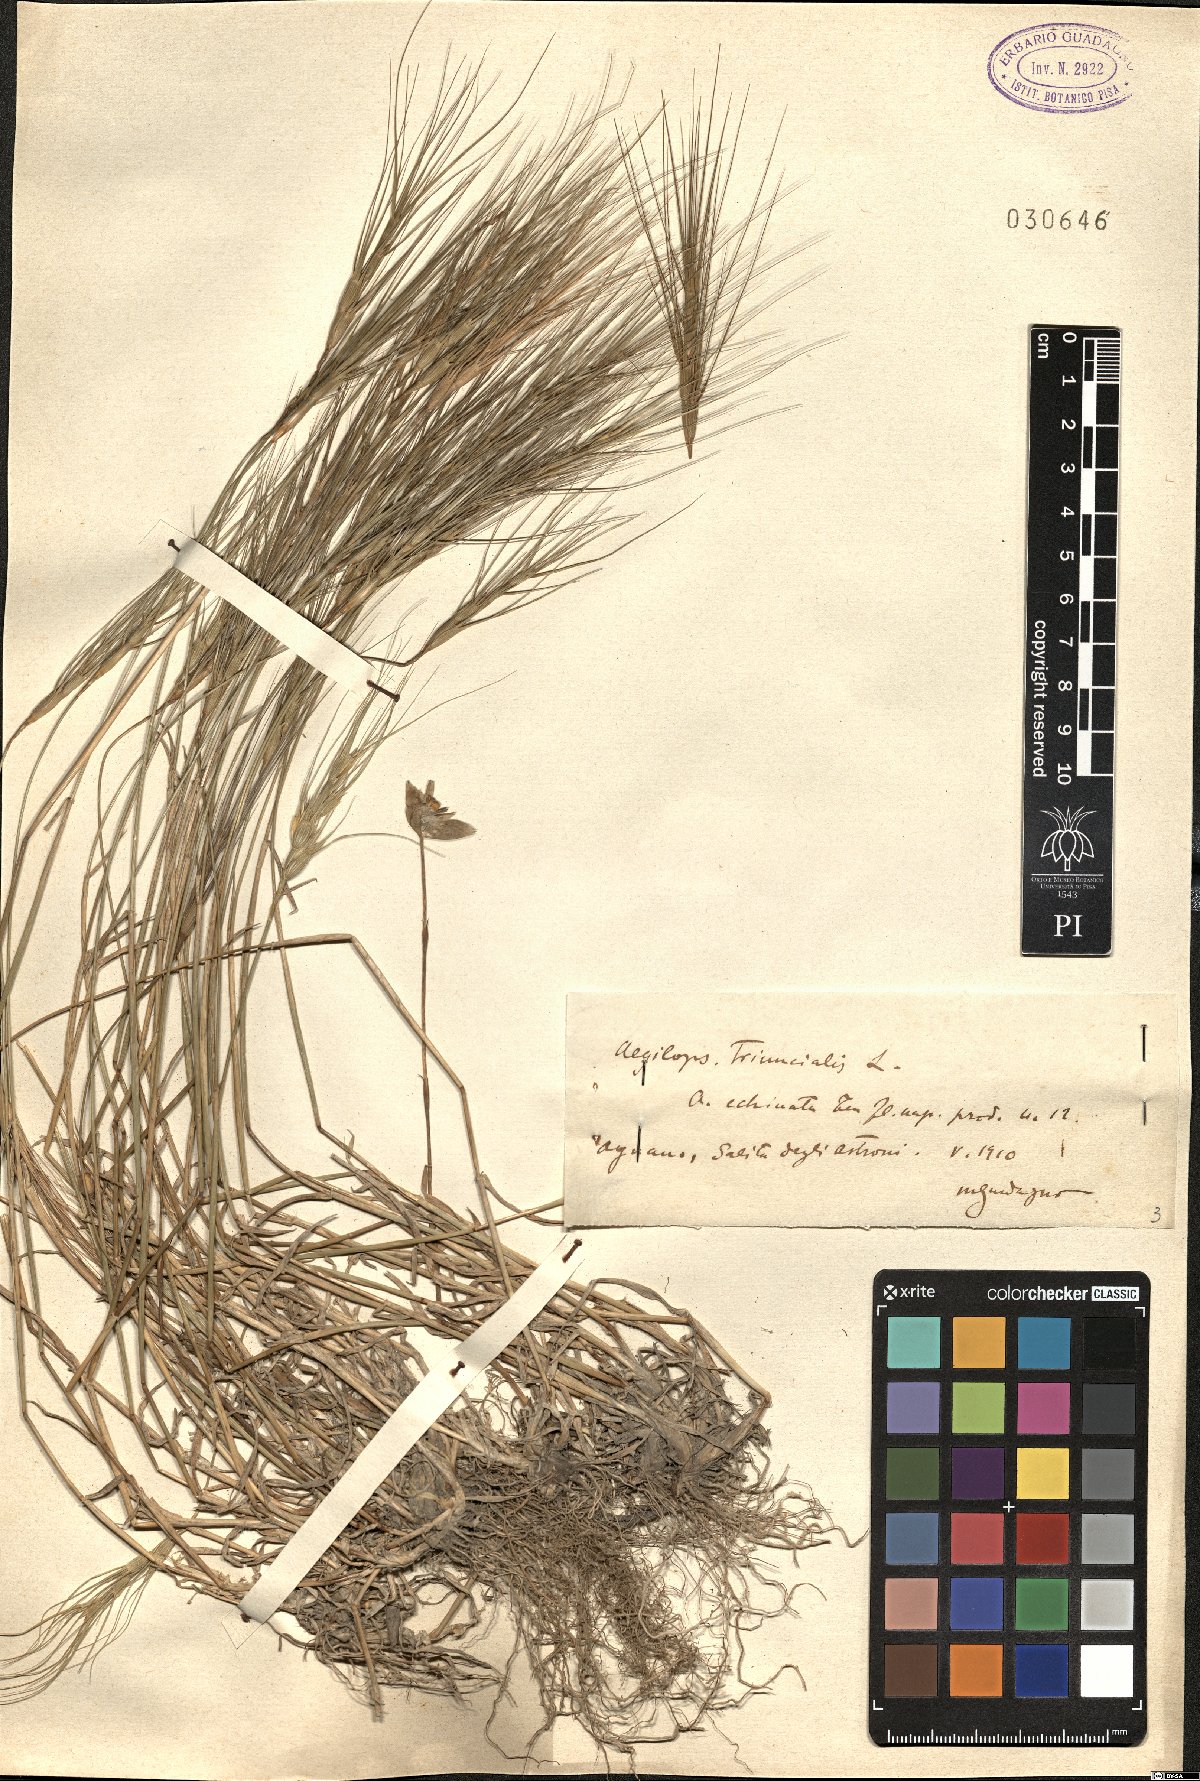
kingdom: Plantae
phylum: Tracheophyta
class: Liliopsida
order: Poales
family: Poaceae
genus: Aegilops
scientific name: Aegilops triuncialis
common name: Barb goat grass
